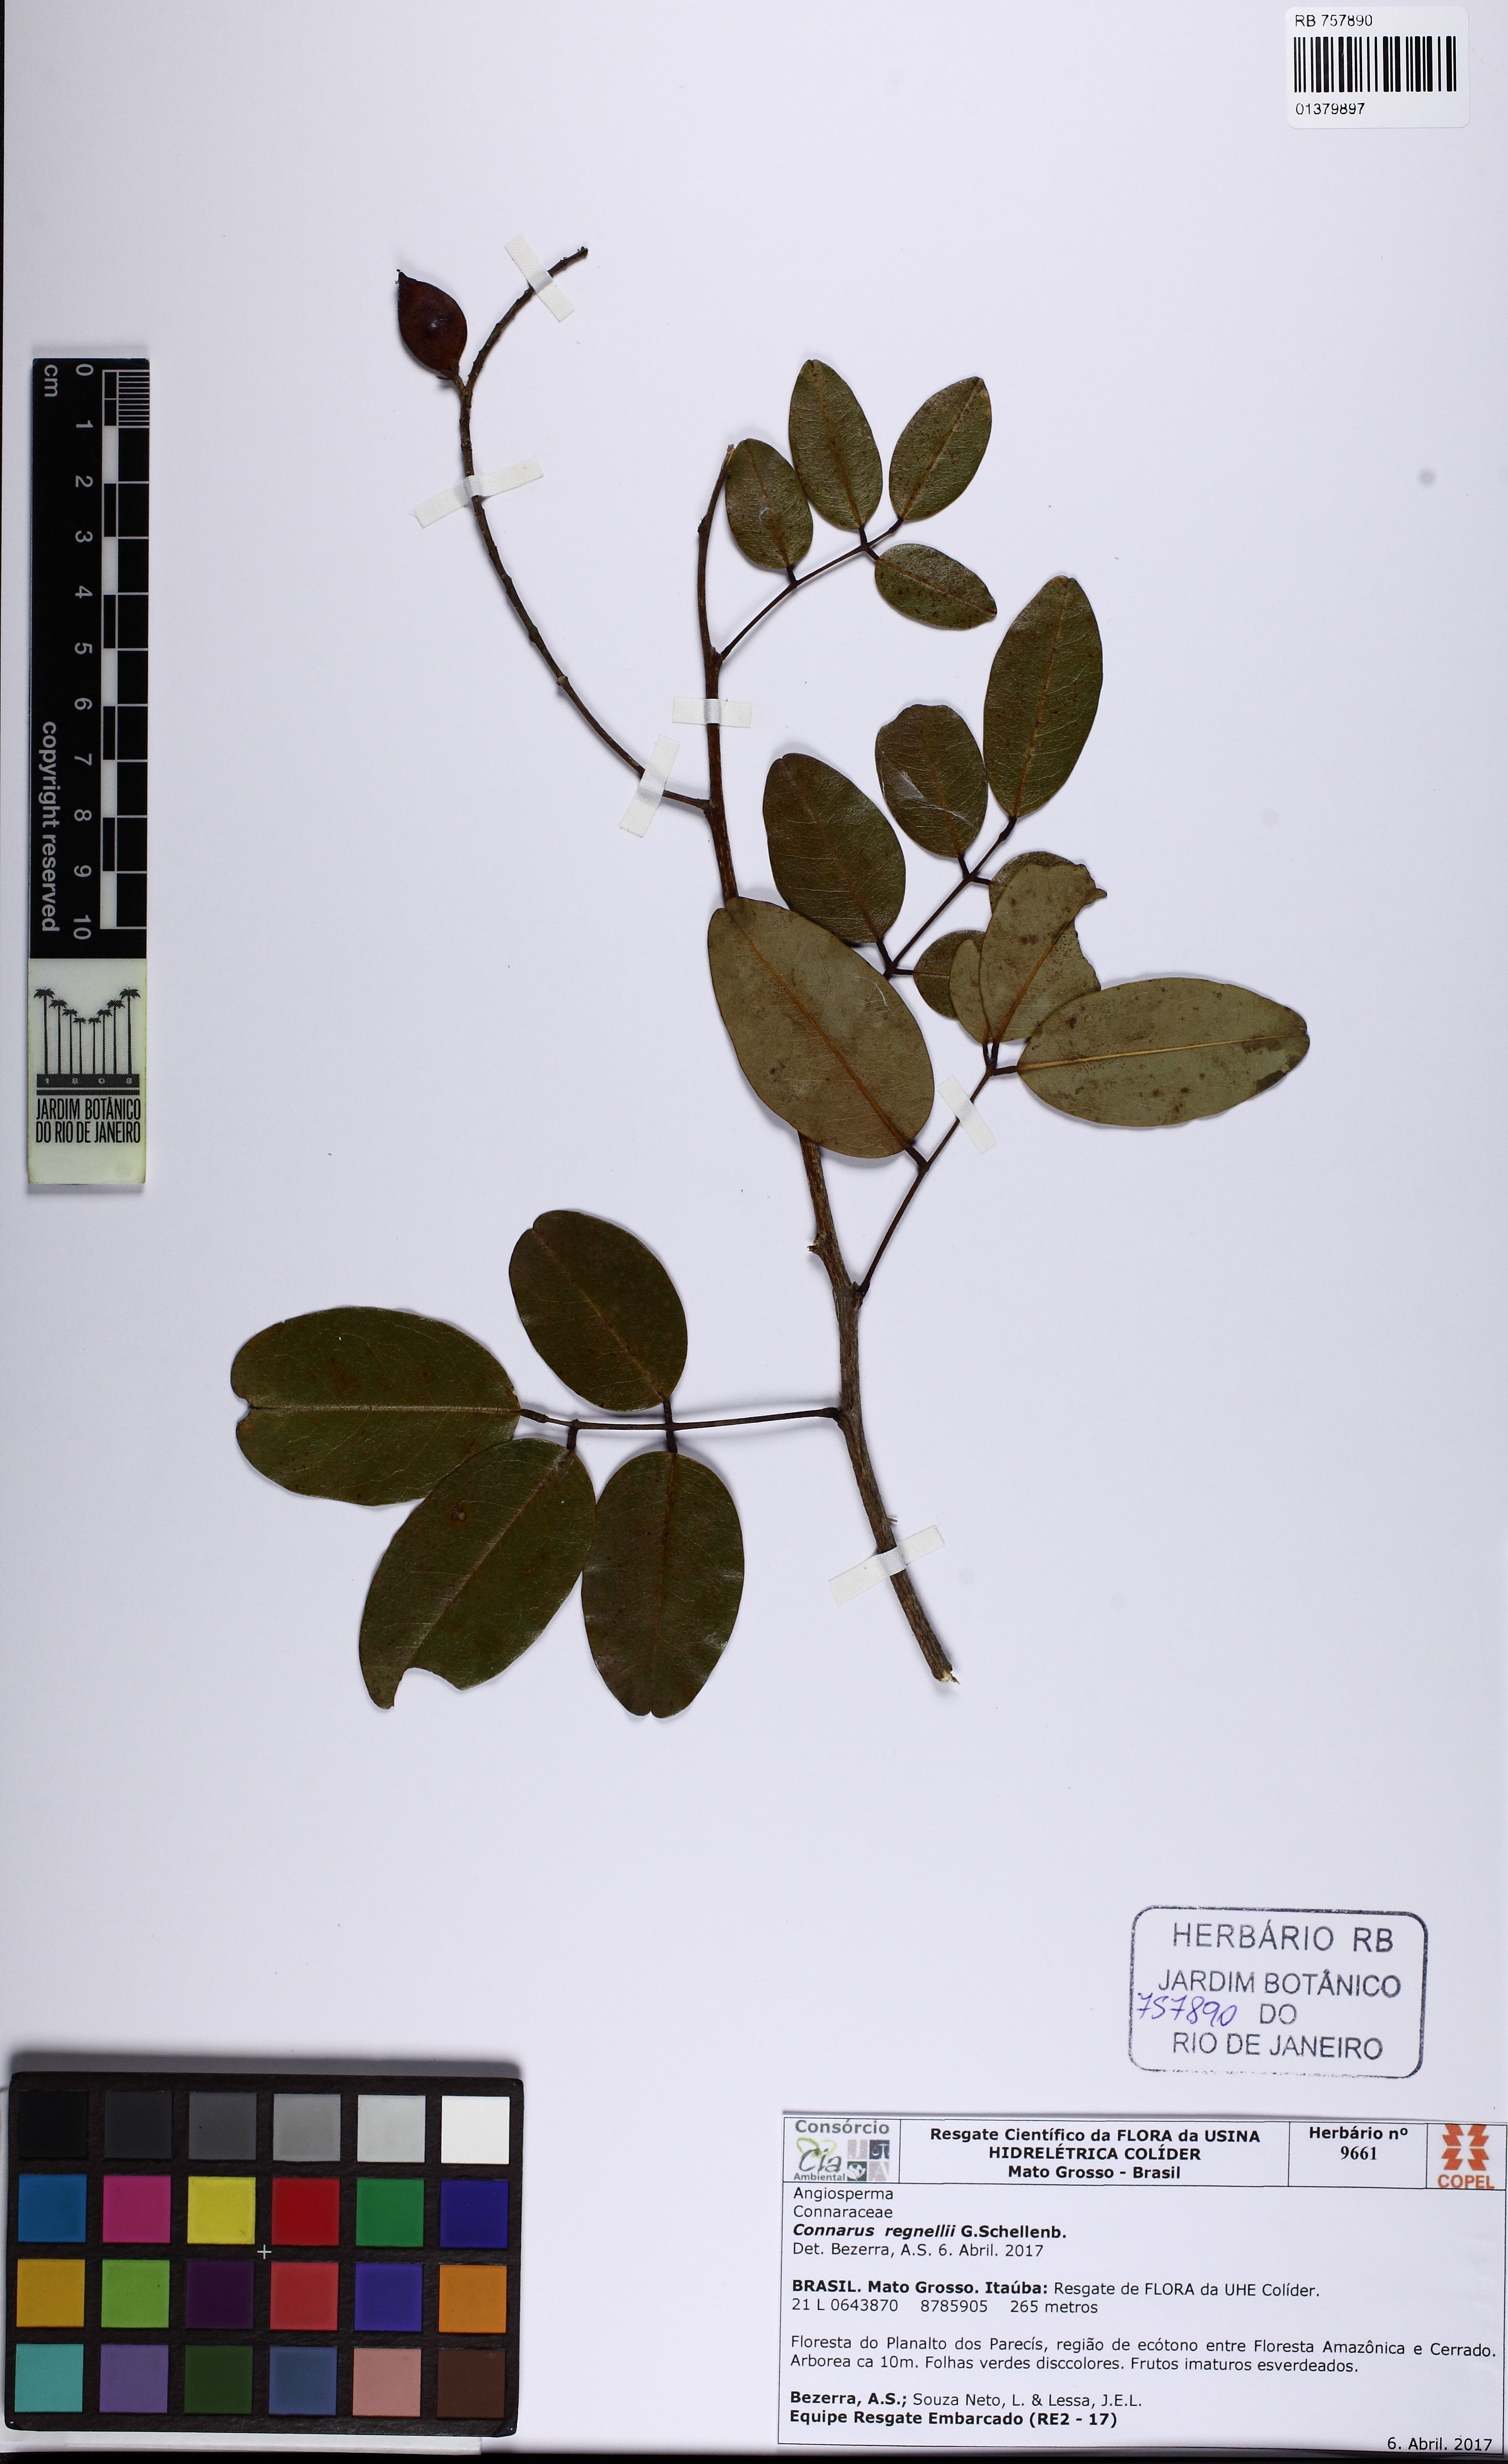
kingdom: Plantae
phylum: Tracheophyta
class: Magnoliopsida
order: Oxalidales
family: Connaraceae
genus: Connarus
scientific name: Connarus regnellii
